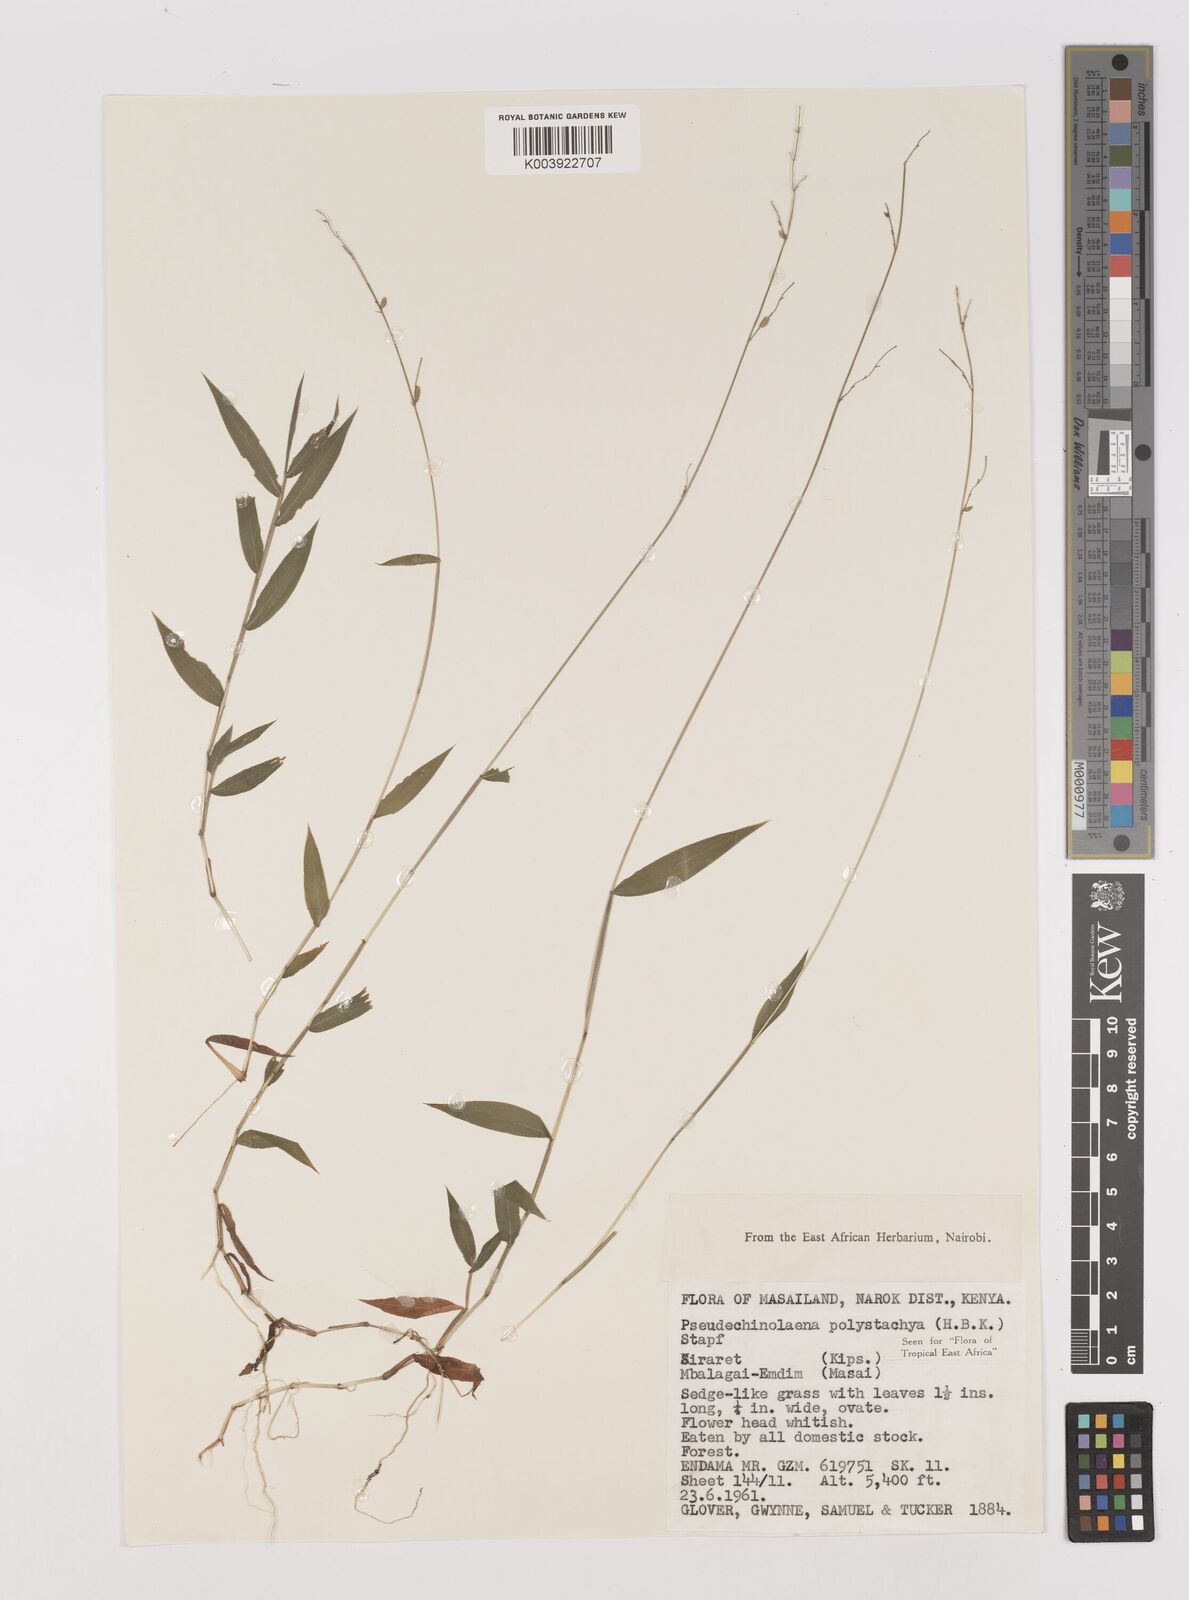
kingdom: Plantae
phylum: Tracheophyta
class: Liliopsida
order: Poales
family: Poaceae
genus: Pseudechinolaena
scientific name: Pseudechinolaena polystachya
